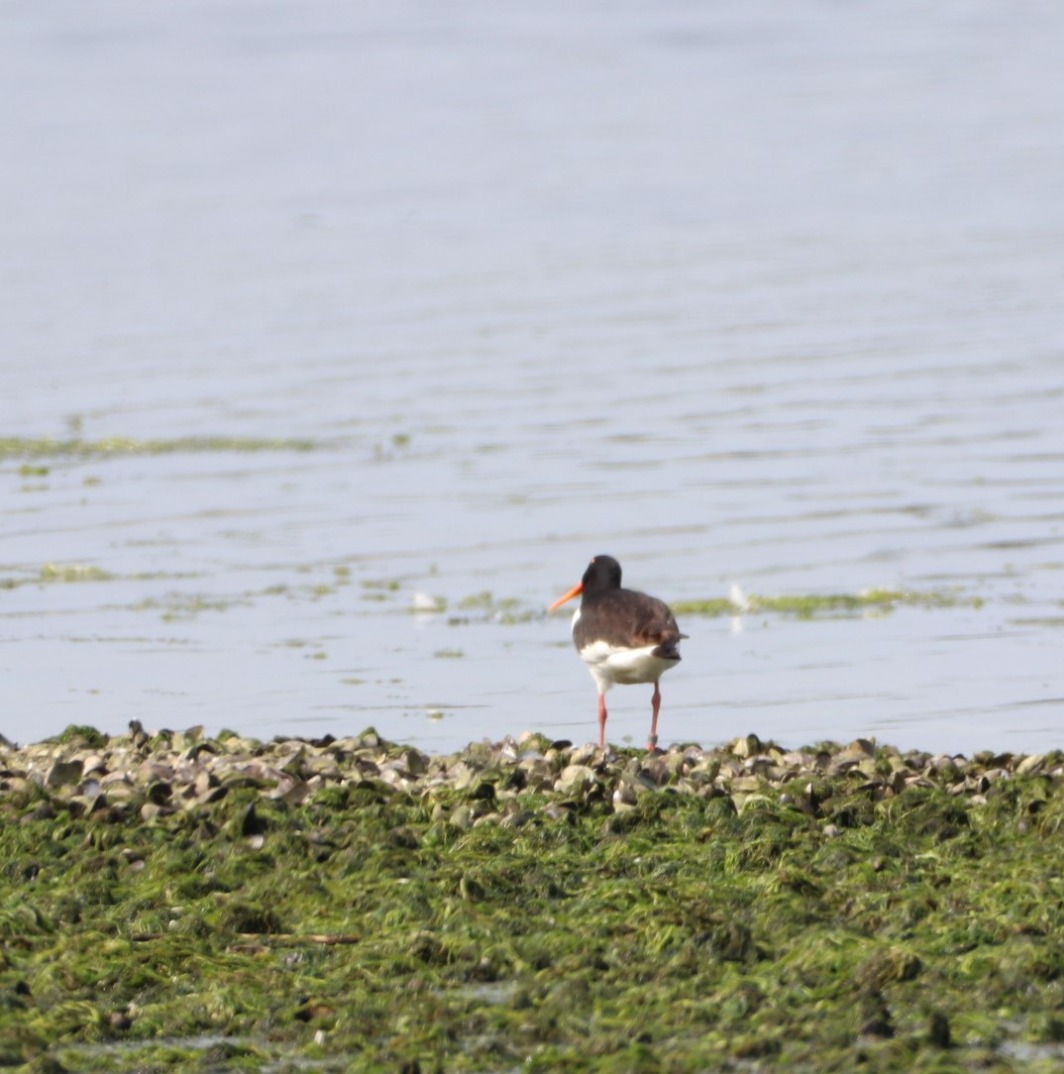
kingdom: Animalia
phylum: Chordata
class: Aves
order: Charadriiformes
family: Haematopodidae
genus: Haematopus
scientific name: Haematopus ostralegus
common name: Strandskade
